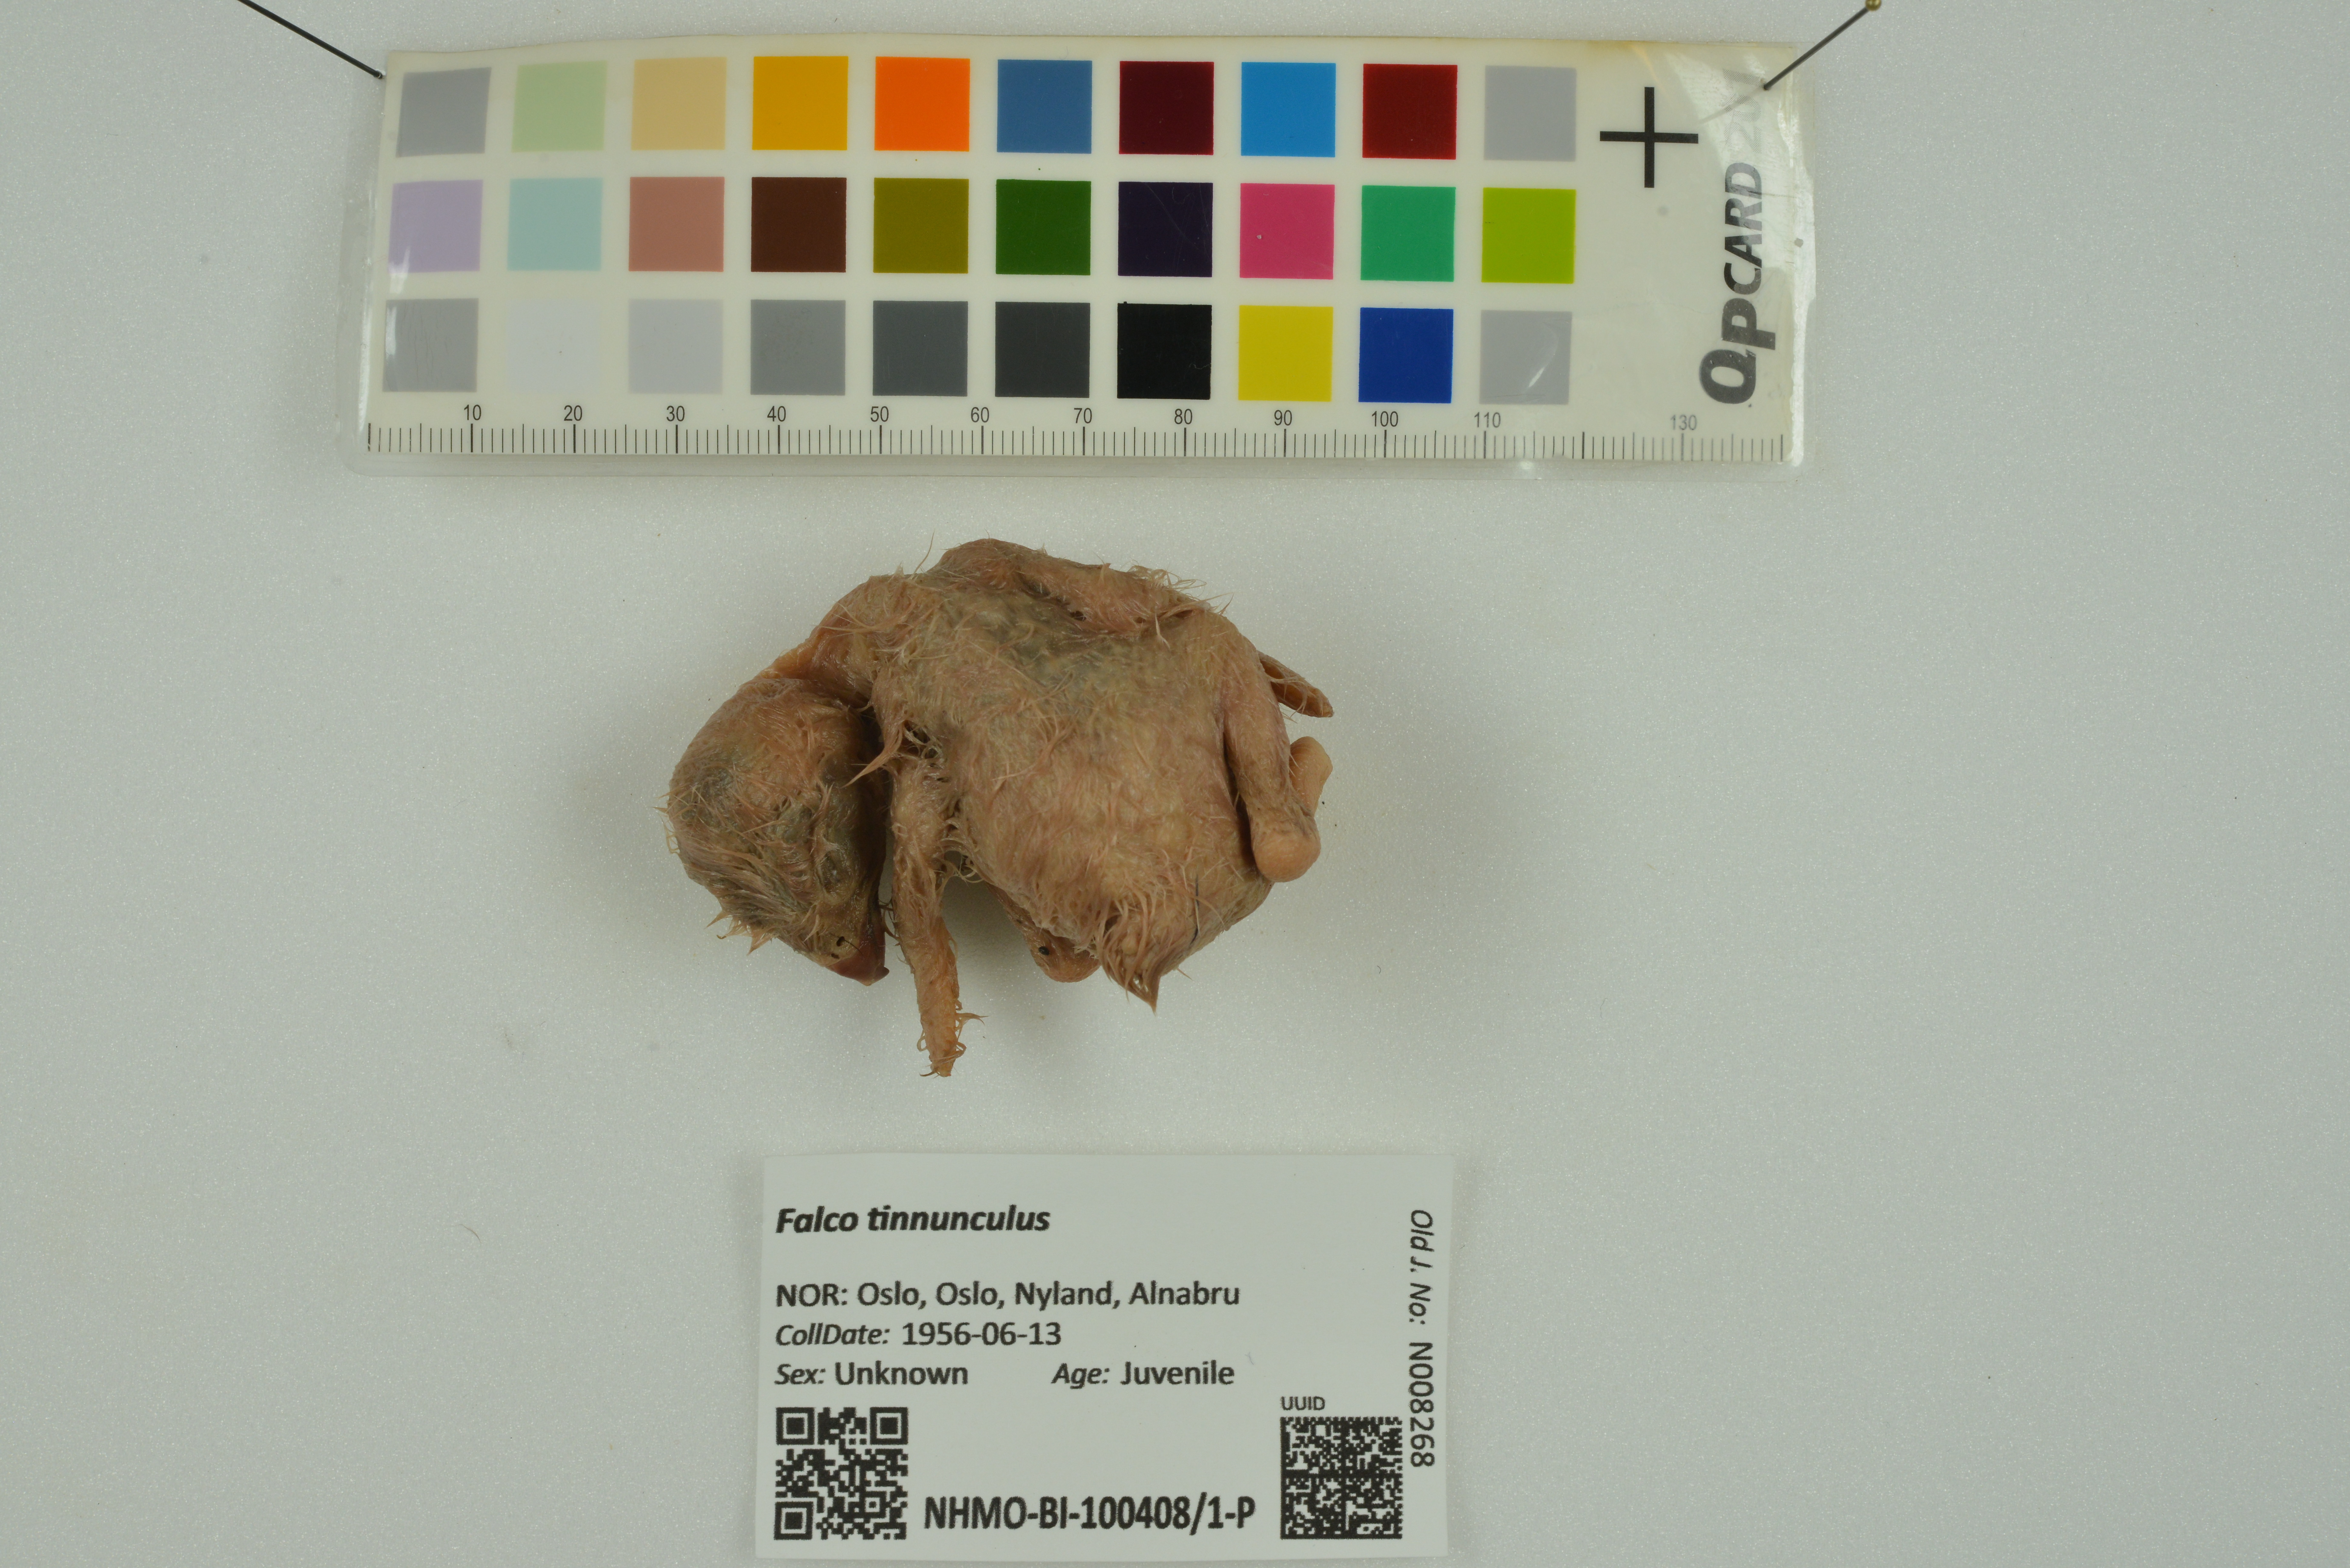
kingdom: Animalia
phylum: Chordata
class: Aves
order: Falconiformes
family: Falconidae
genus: Falco
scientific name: Falco tinnunculus
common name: Common kestrel
